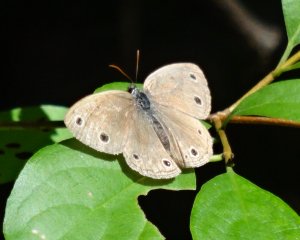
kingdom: Animalia
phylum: Arthropoda
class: Insecta
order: Lepidoptera
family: Nymphalidae
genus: Euptychia
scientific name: Euptychia cymela
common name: Little Wood Satyr
